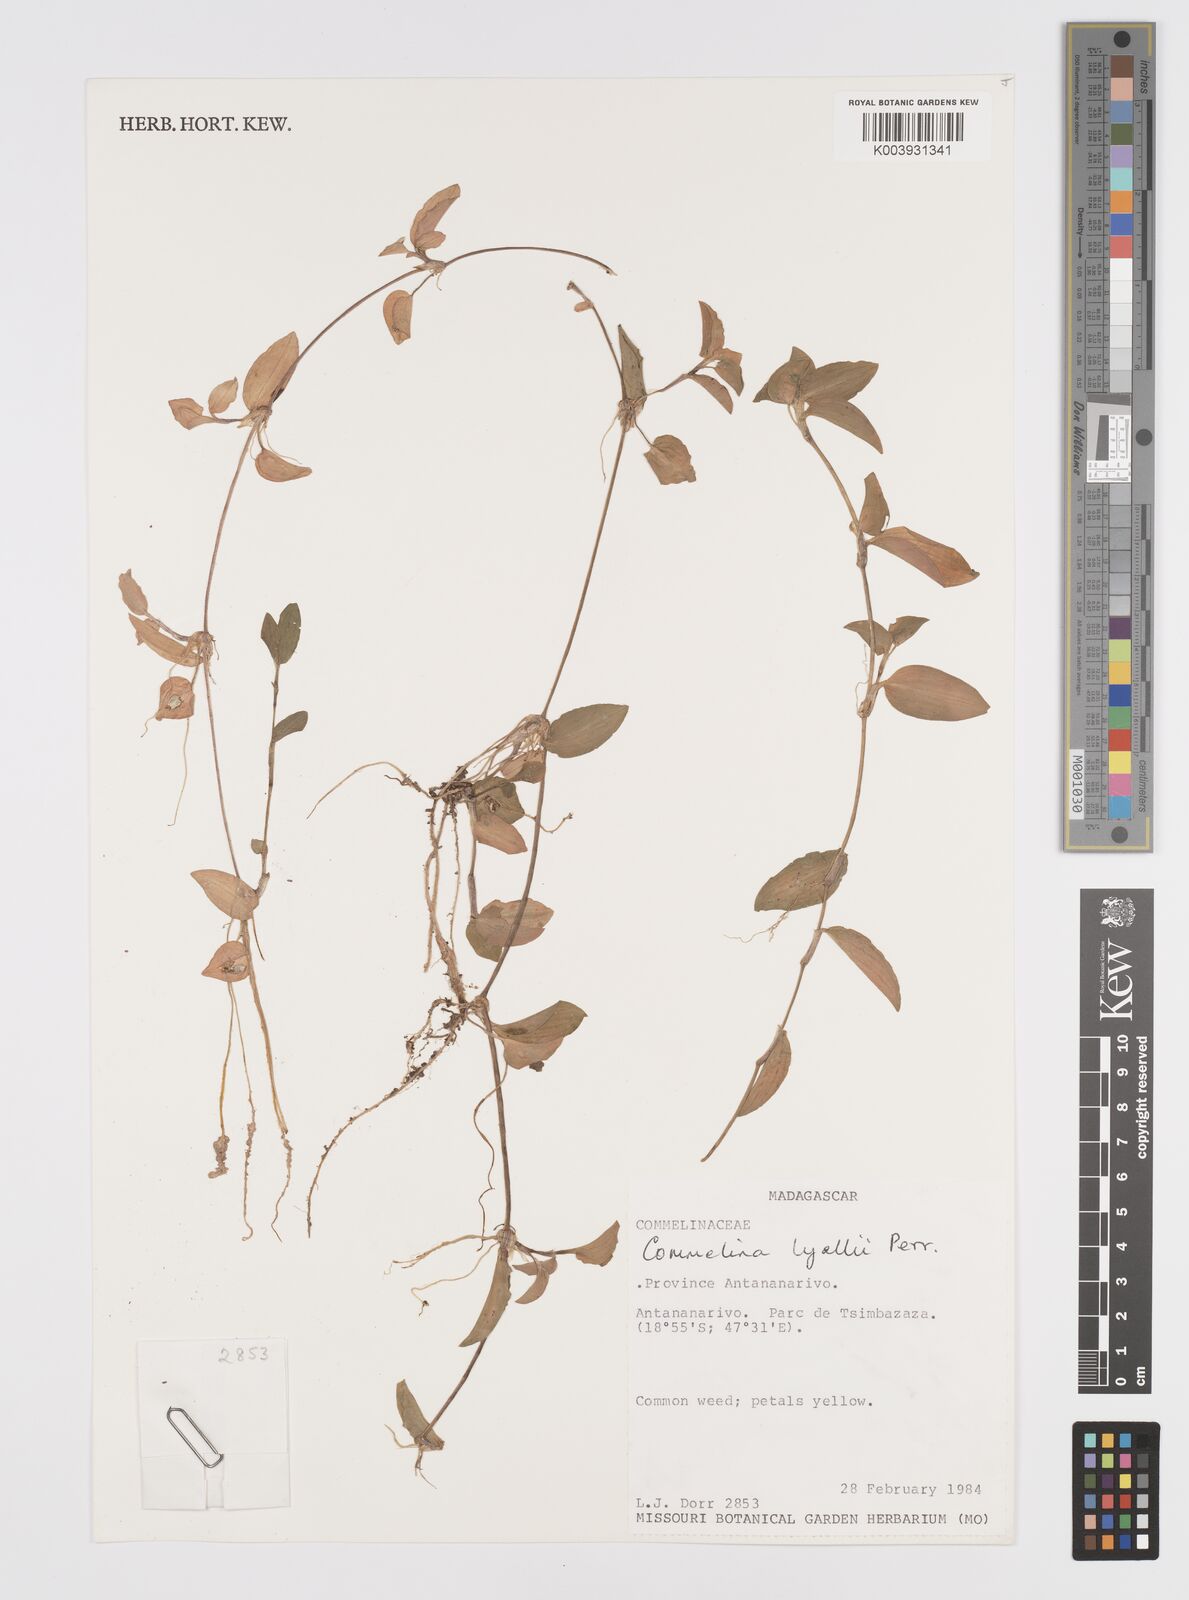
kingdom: Plantae
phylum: Tracheophyta
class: Liliopsida
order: Commelinales
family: Commelinaceae
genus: Commelina
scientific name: Commelina africana
